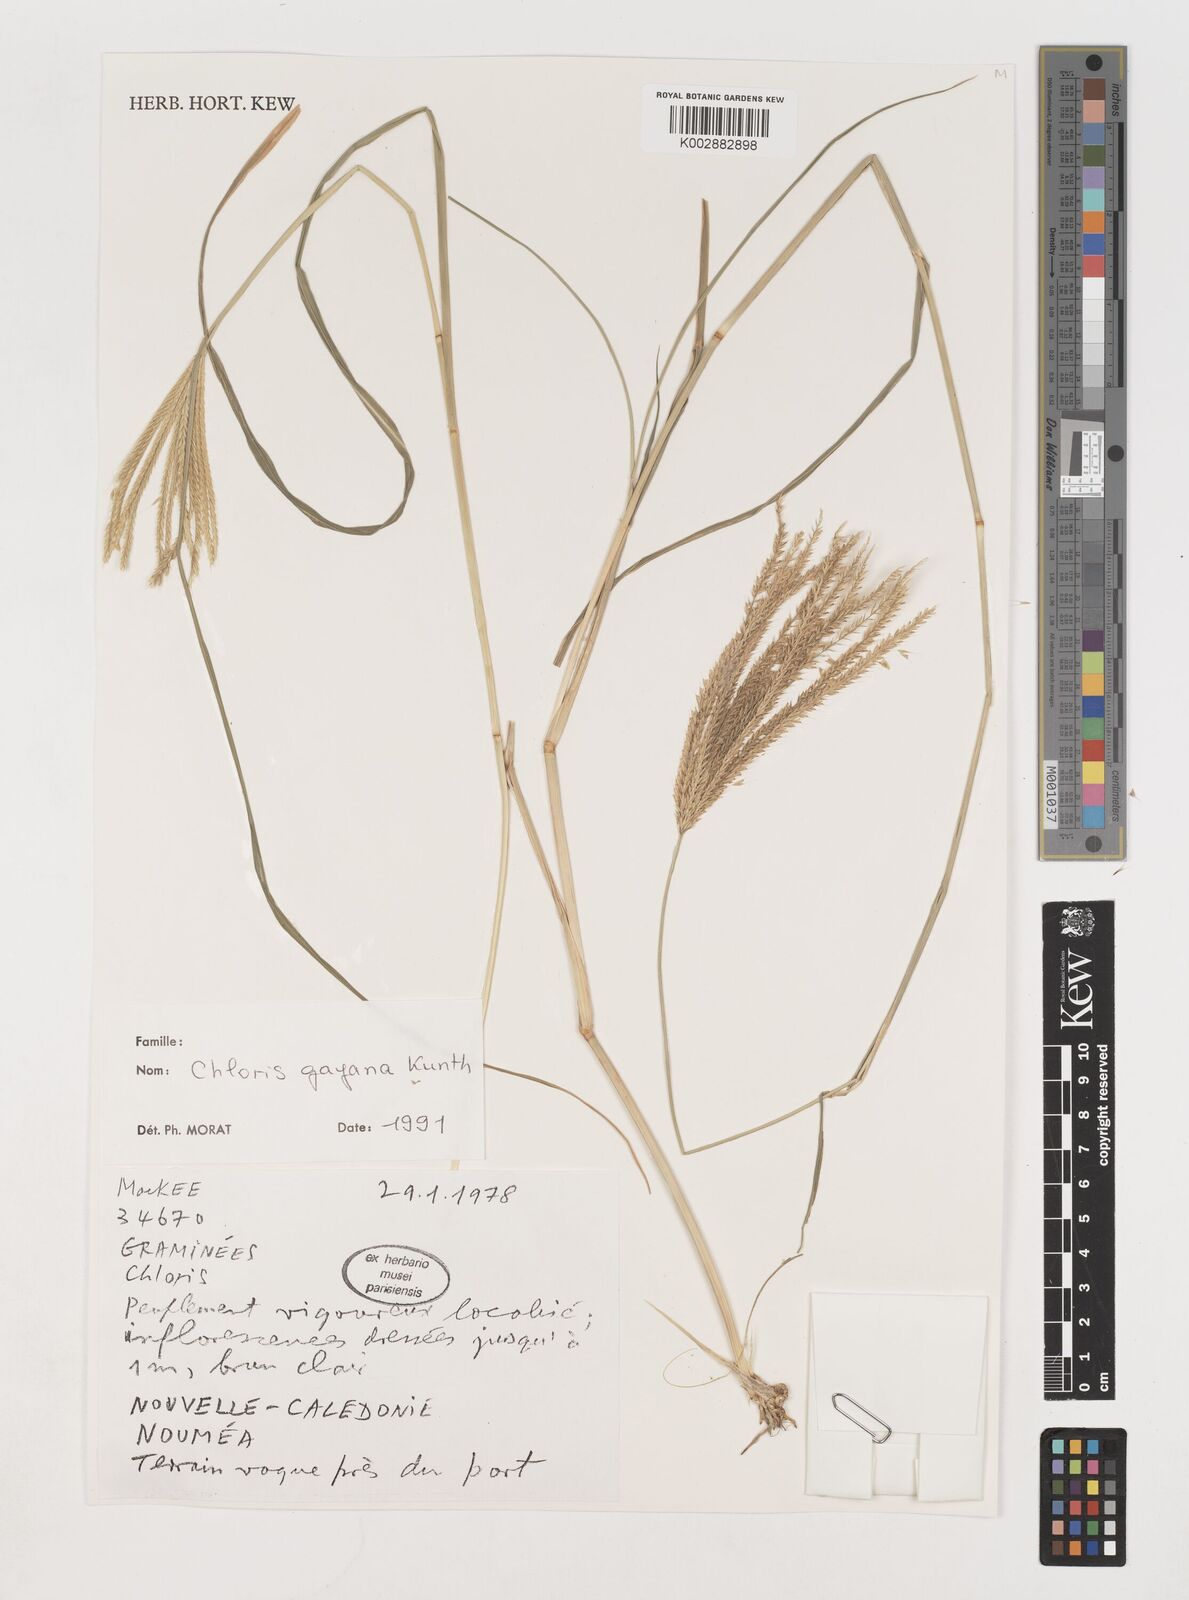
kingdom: Plantae
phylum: Tracheophyta
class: Liliopsida
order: Poales
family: Poaceae
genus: Chloris
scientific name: Chloris gayana
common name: Rhodes grass
